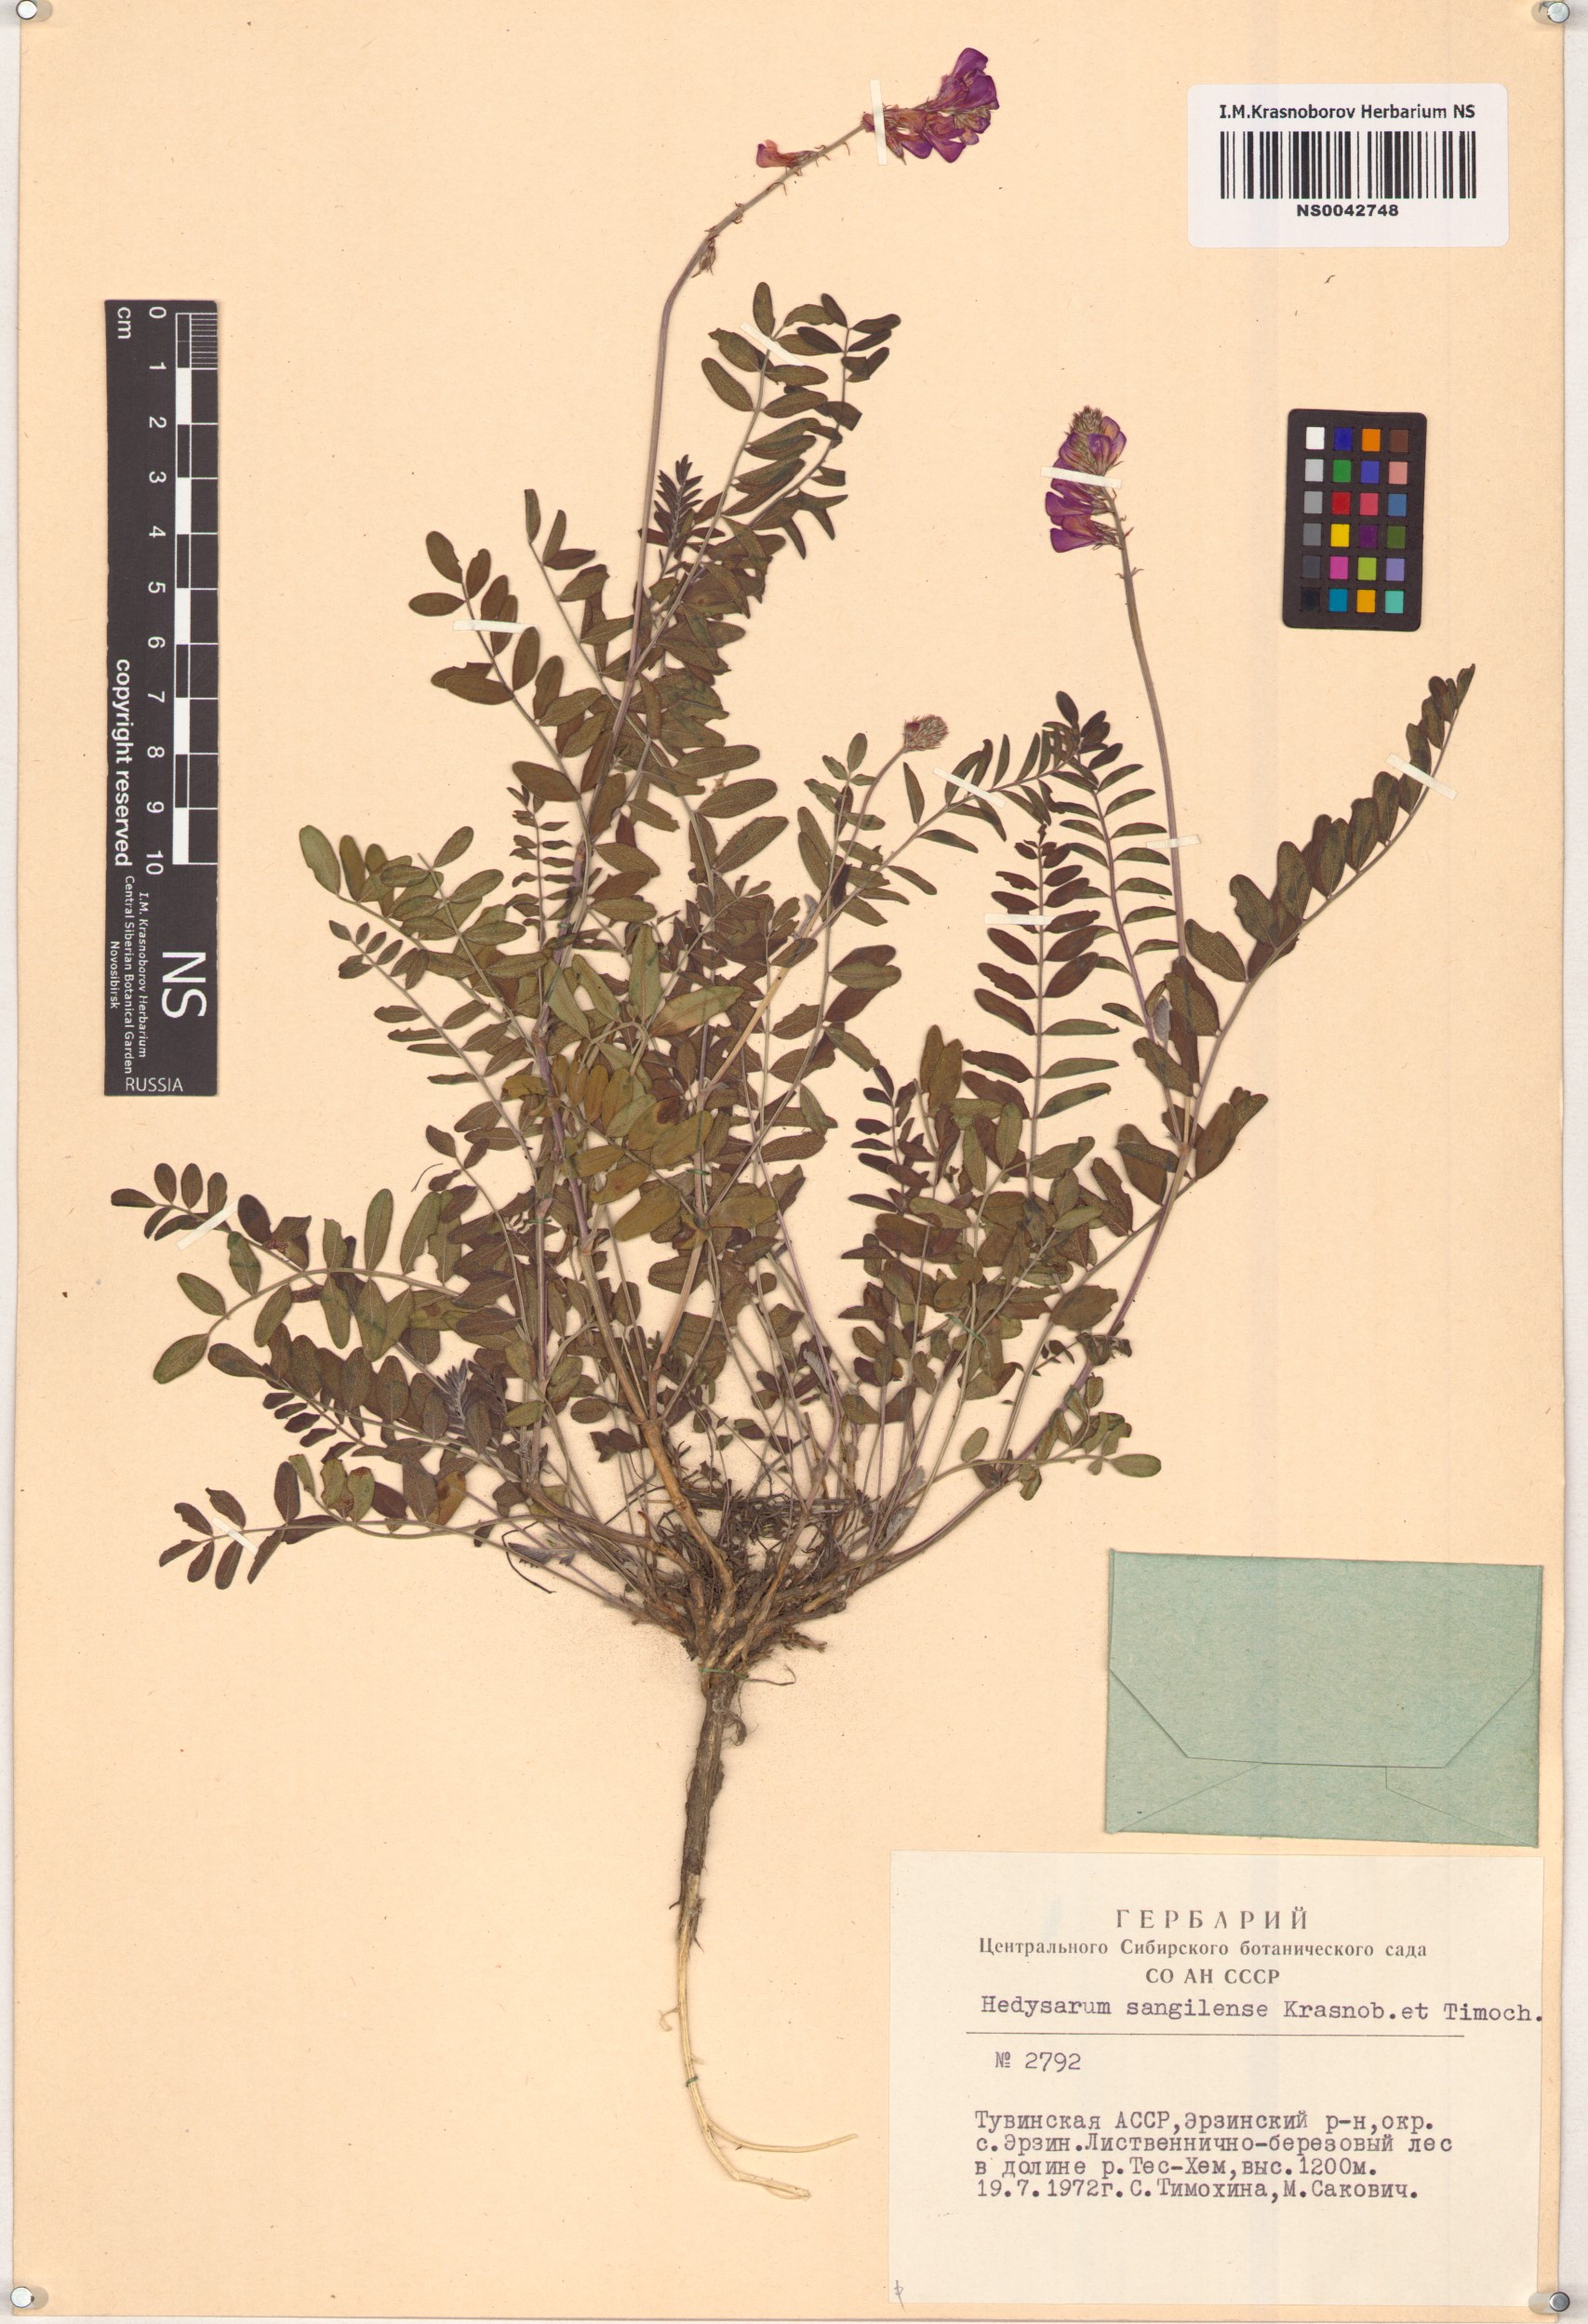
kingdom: Plantae
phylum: Tracheophyta
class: Magnoliopsida
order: Fabales
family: Fabaceae
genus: Hedysarum
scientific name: Hedysarum sangilense
